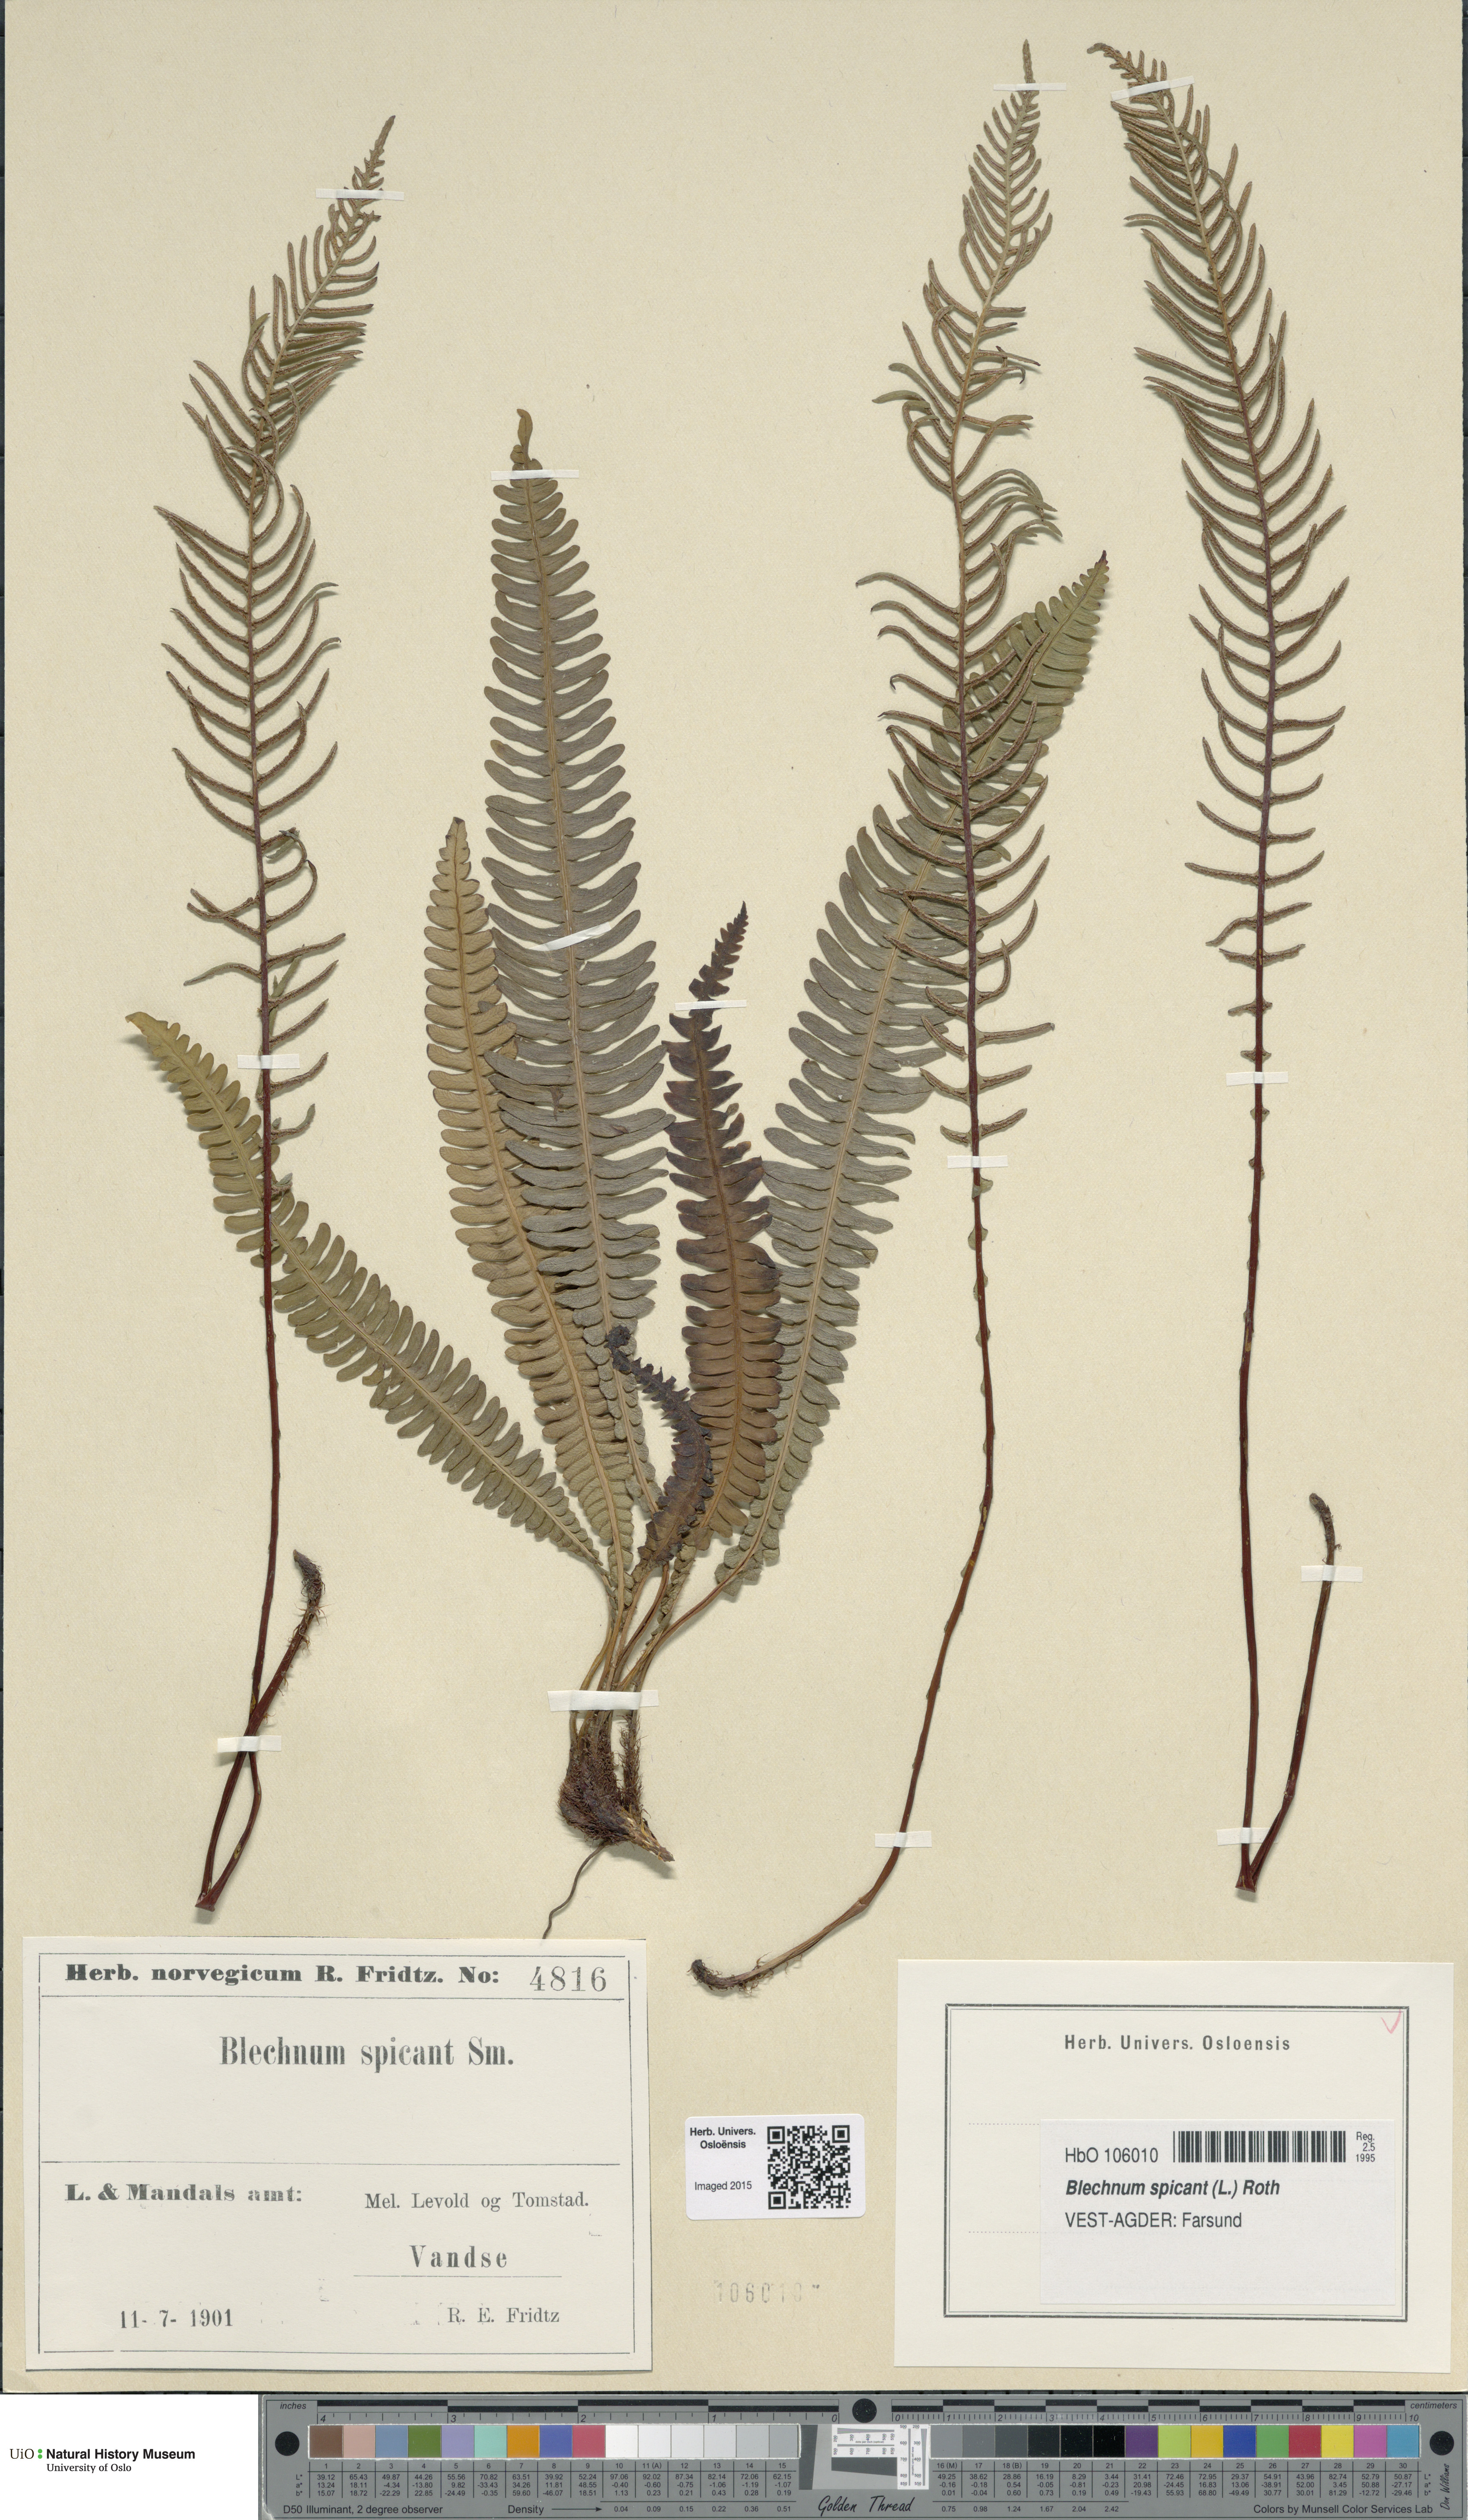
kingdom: Plantae
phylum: Tracheophyta
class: Polypodiopsida
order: Polypodiales
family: Blechnaceae
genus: Struthiopteris
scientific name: Struthiopteris spicant
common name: Deer fern
